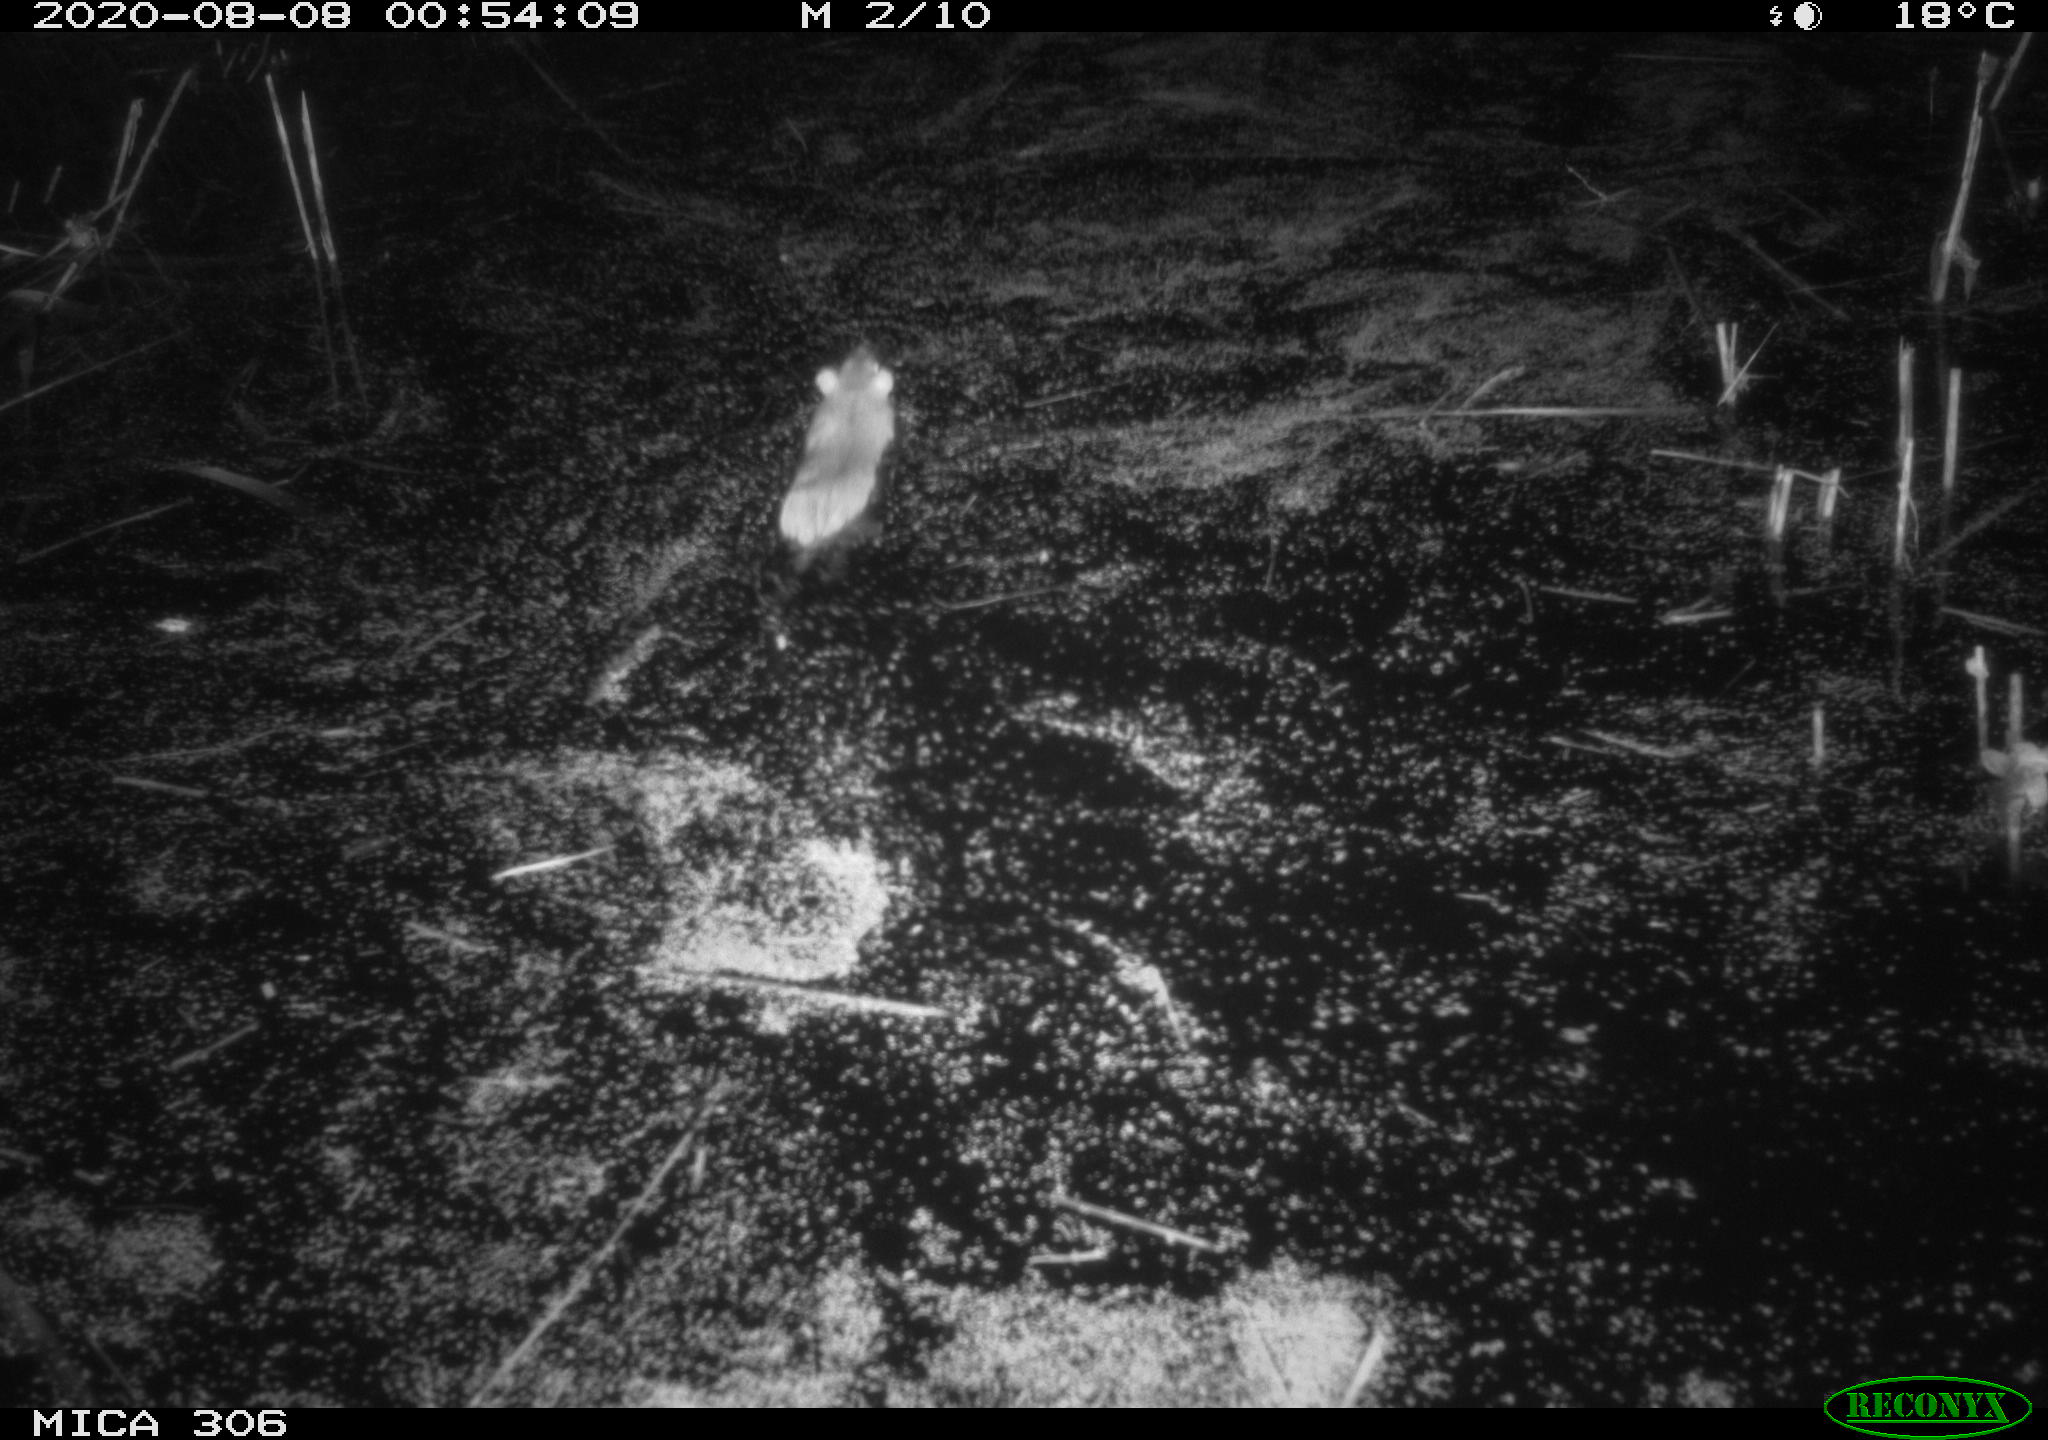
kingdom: Animalia
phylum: Chordata
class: Mammalia
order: Rodentia
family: Muridae
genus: Rattus
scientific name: Rattus norvegicus
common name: Brown rat
